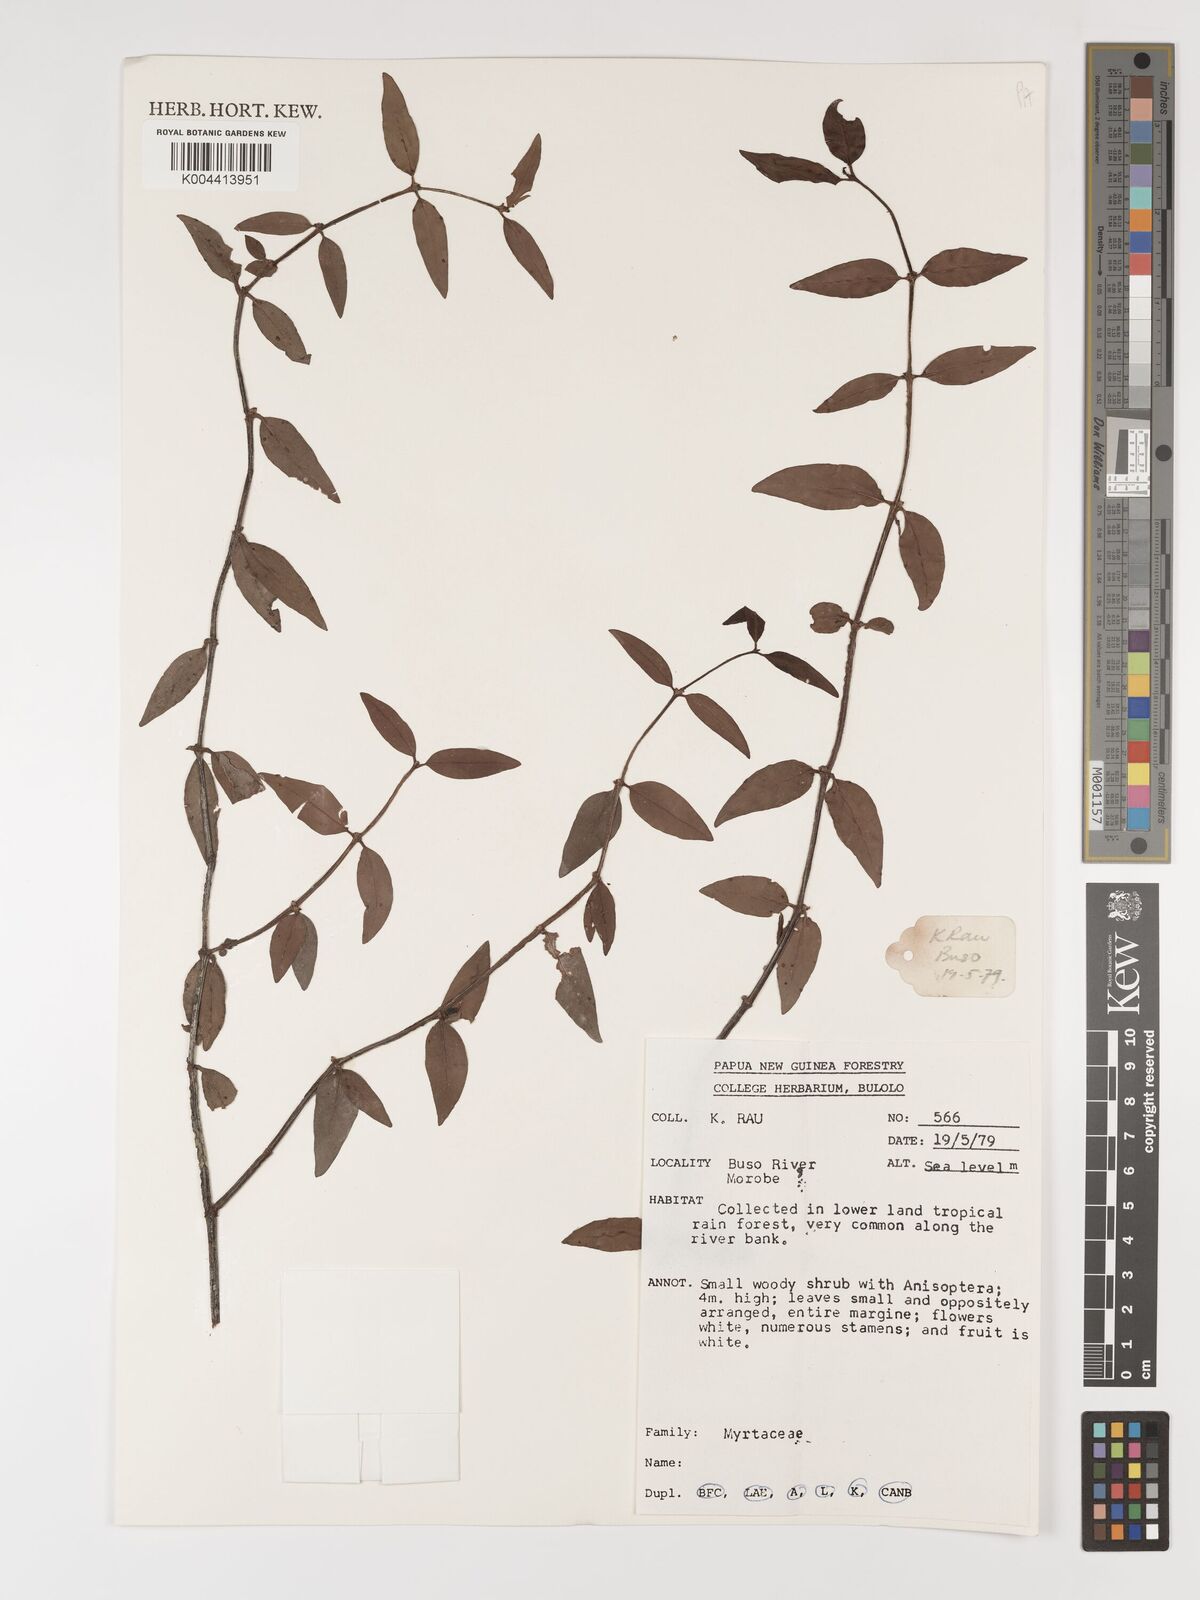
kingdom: Plantae
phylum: Tracheophyta
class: Magnoliopsida
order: Myrtales
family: Myrtaceae
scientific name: Myrtaceae
